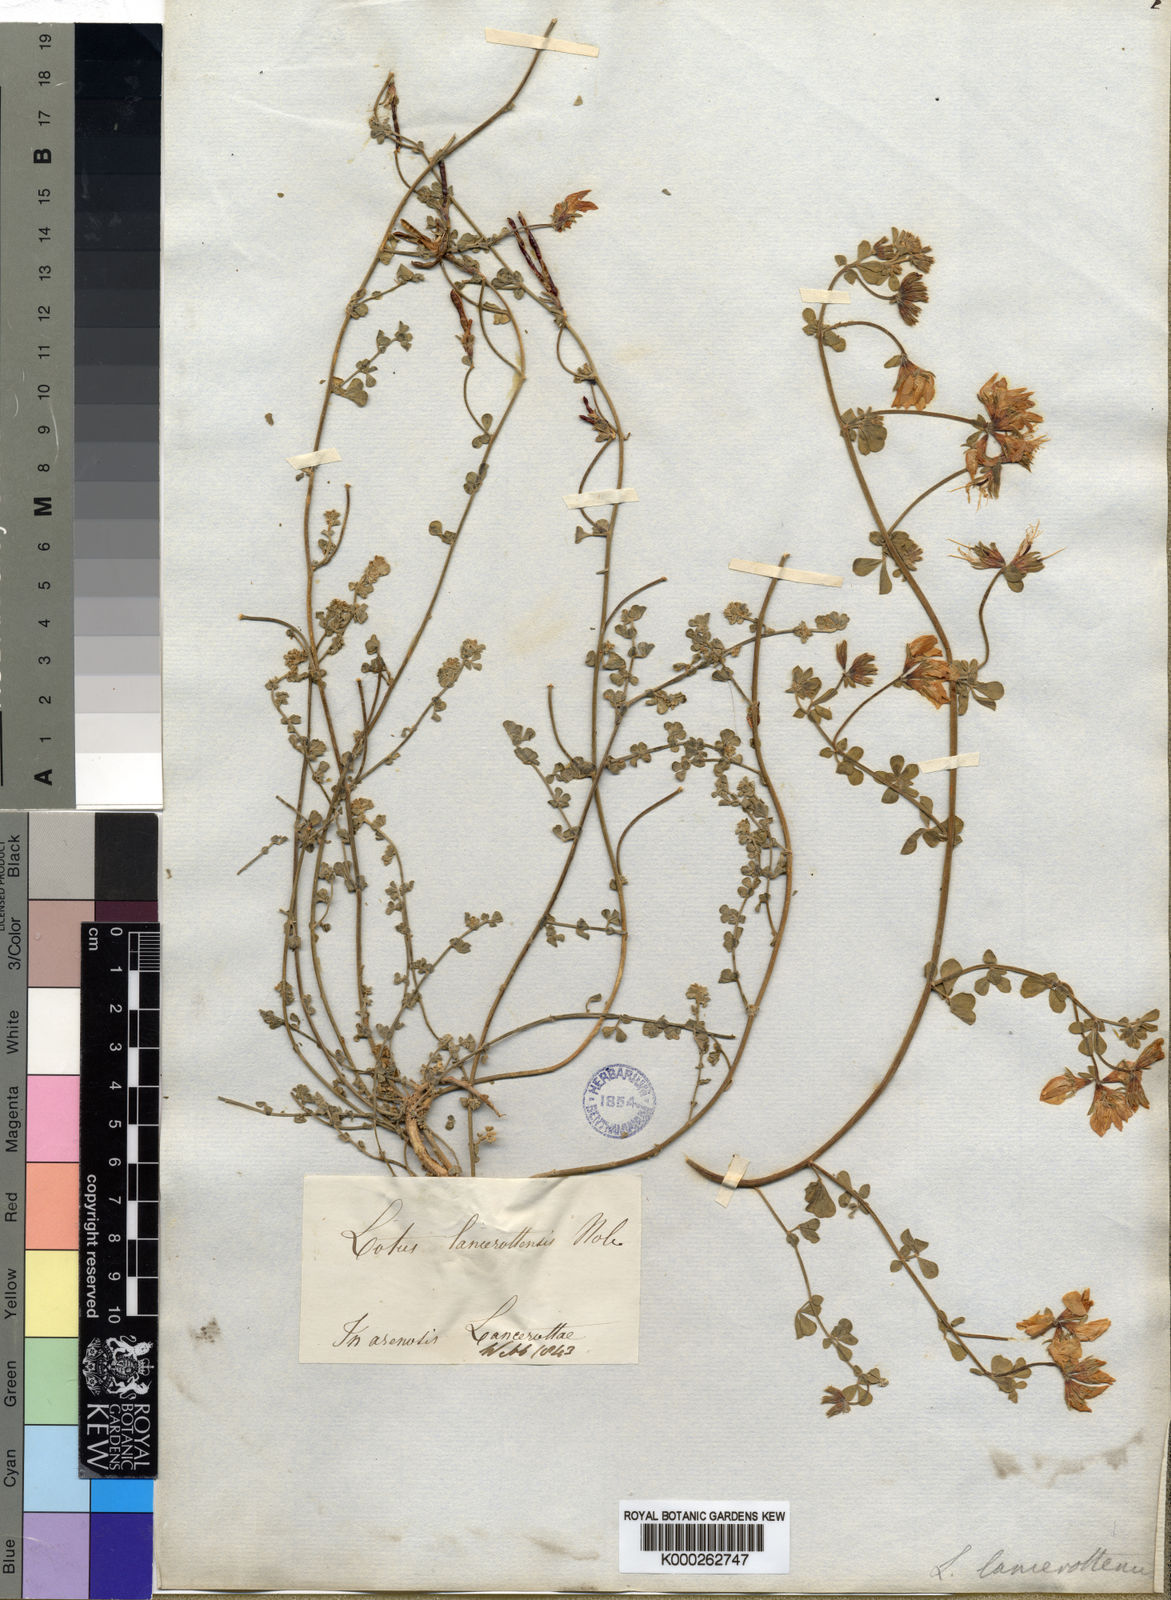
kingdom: Plantae
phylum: Tracheophyta
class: Magnoliopsida
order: Fabales
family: Fabaceae
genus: Lotus
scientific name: Lotus lancerottensis
